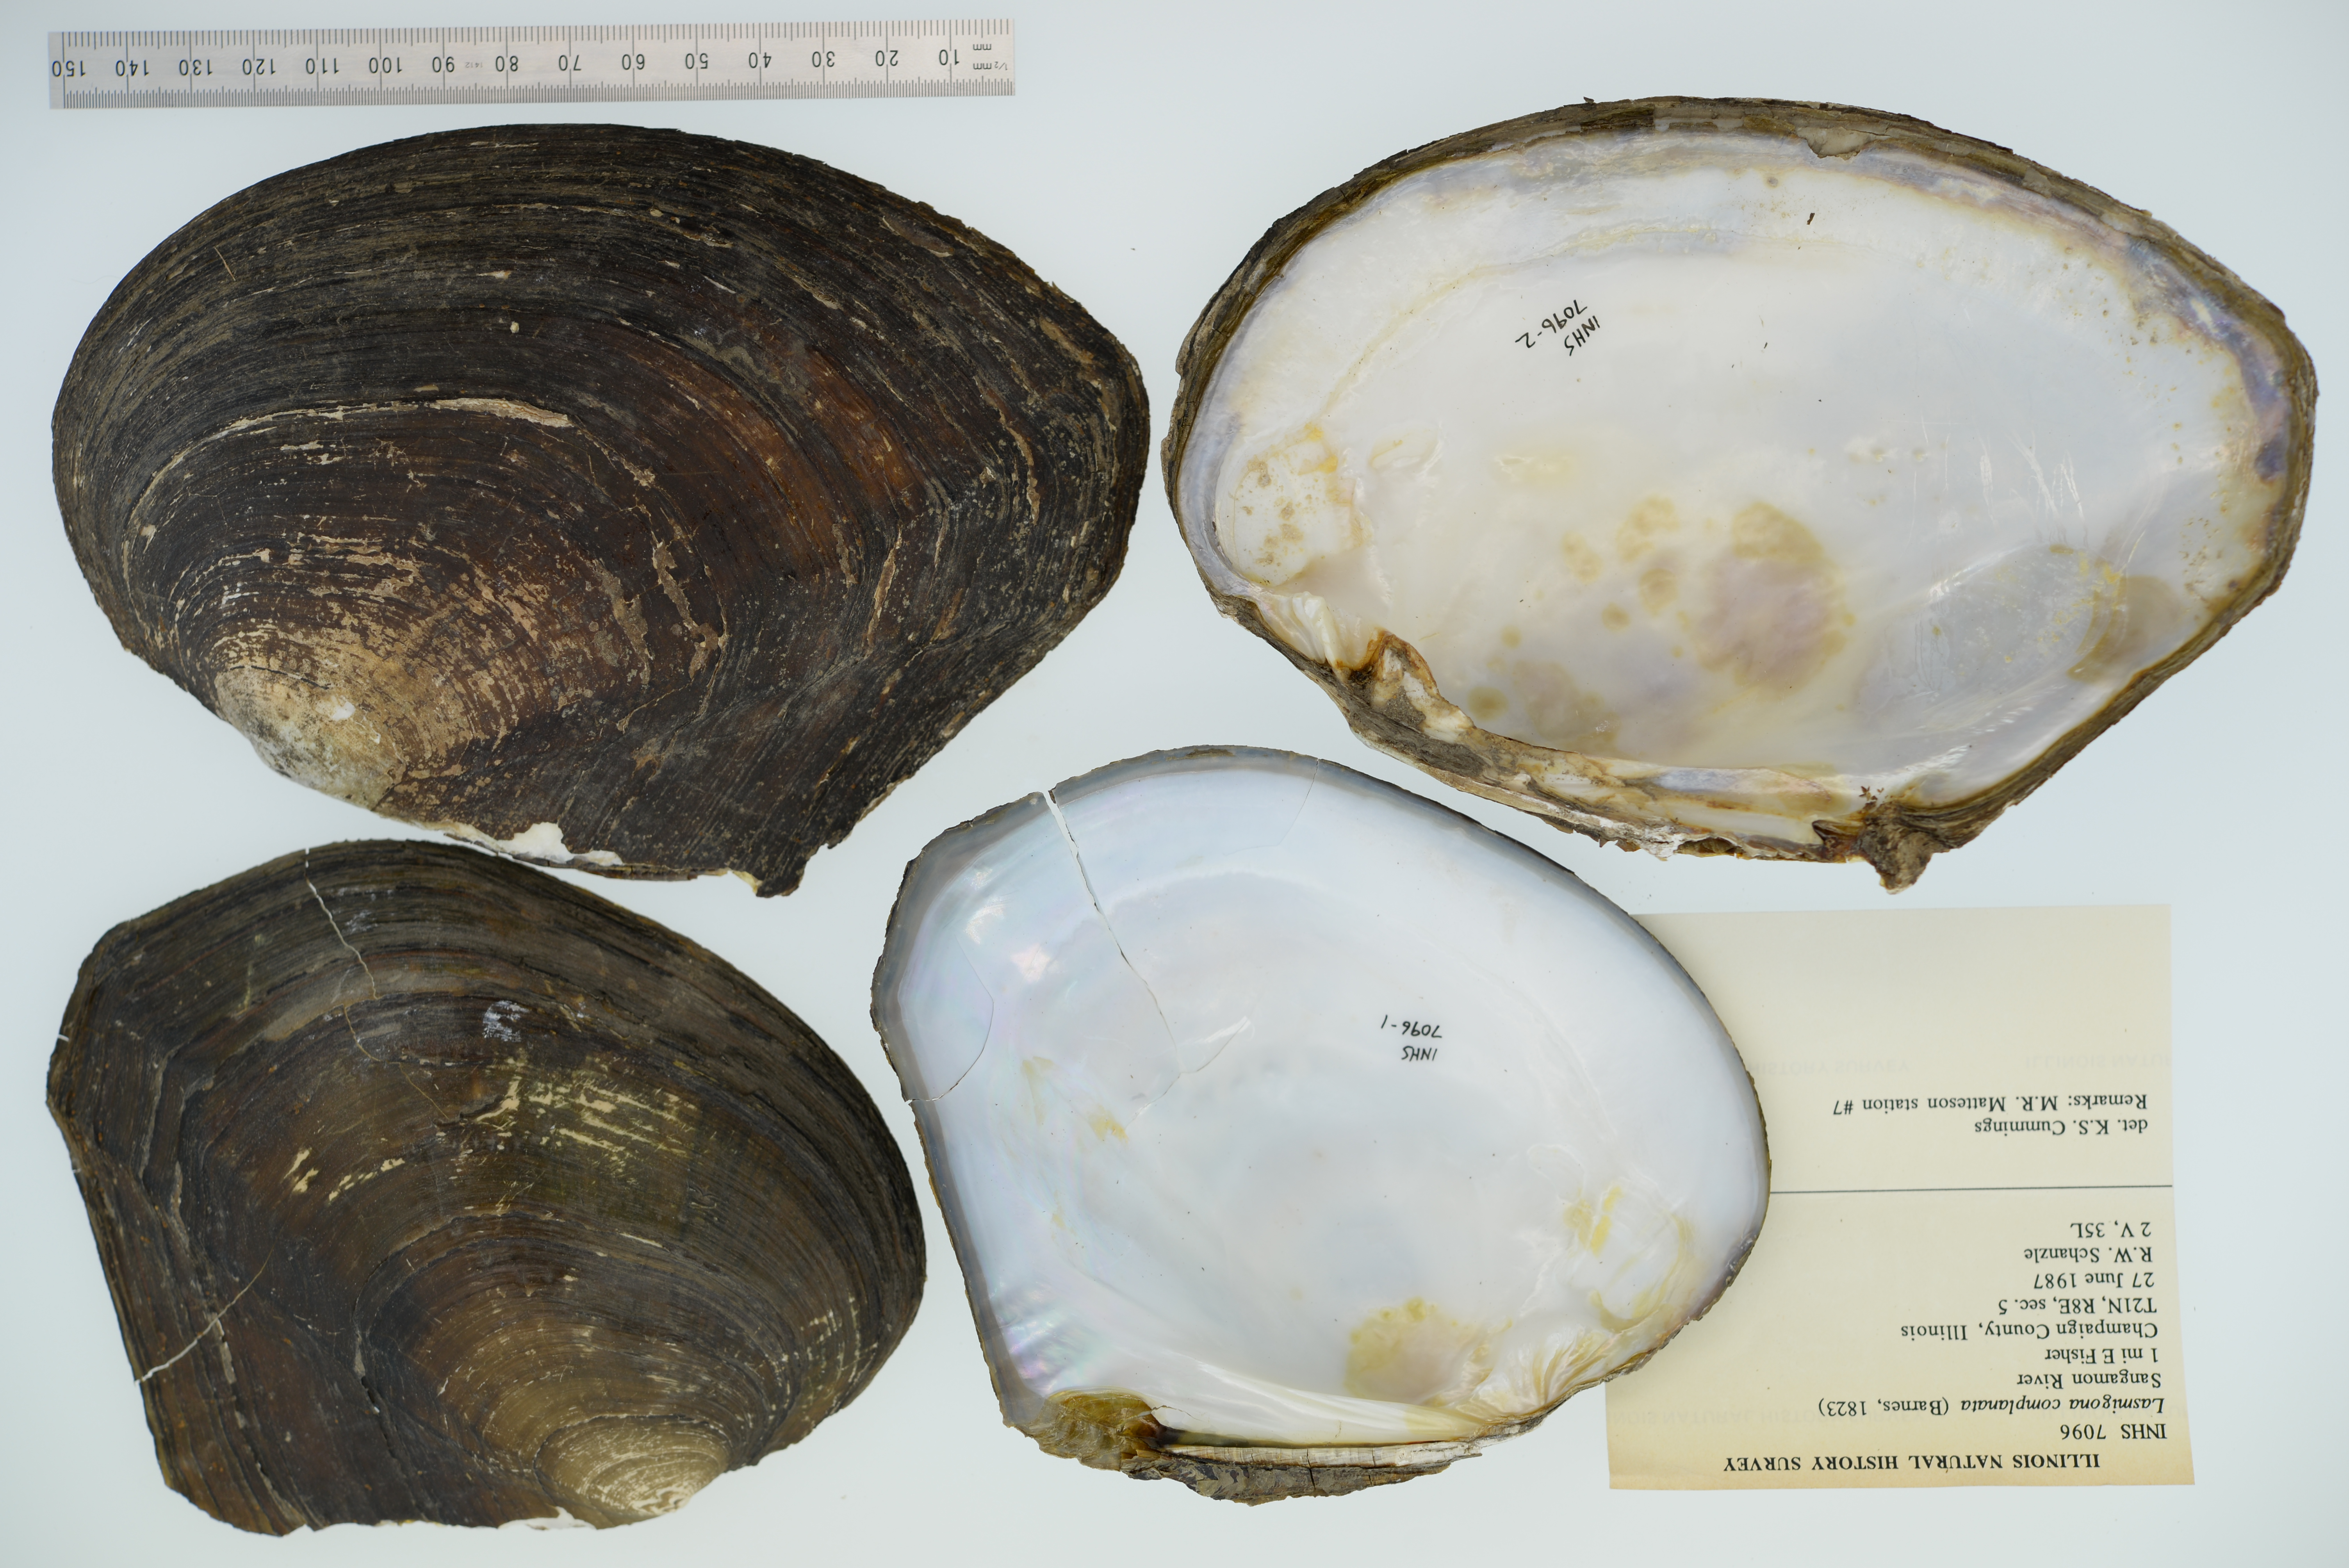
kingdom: Animalia
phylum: Mollusca
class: Bivalvia
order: Unionida
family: Unionidae
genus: Lasmigona
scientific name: Lasmigona complanata
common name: White heelsplitter
